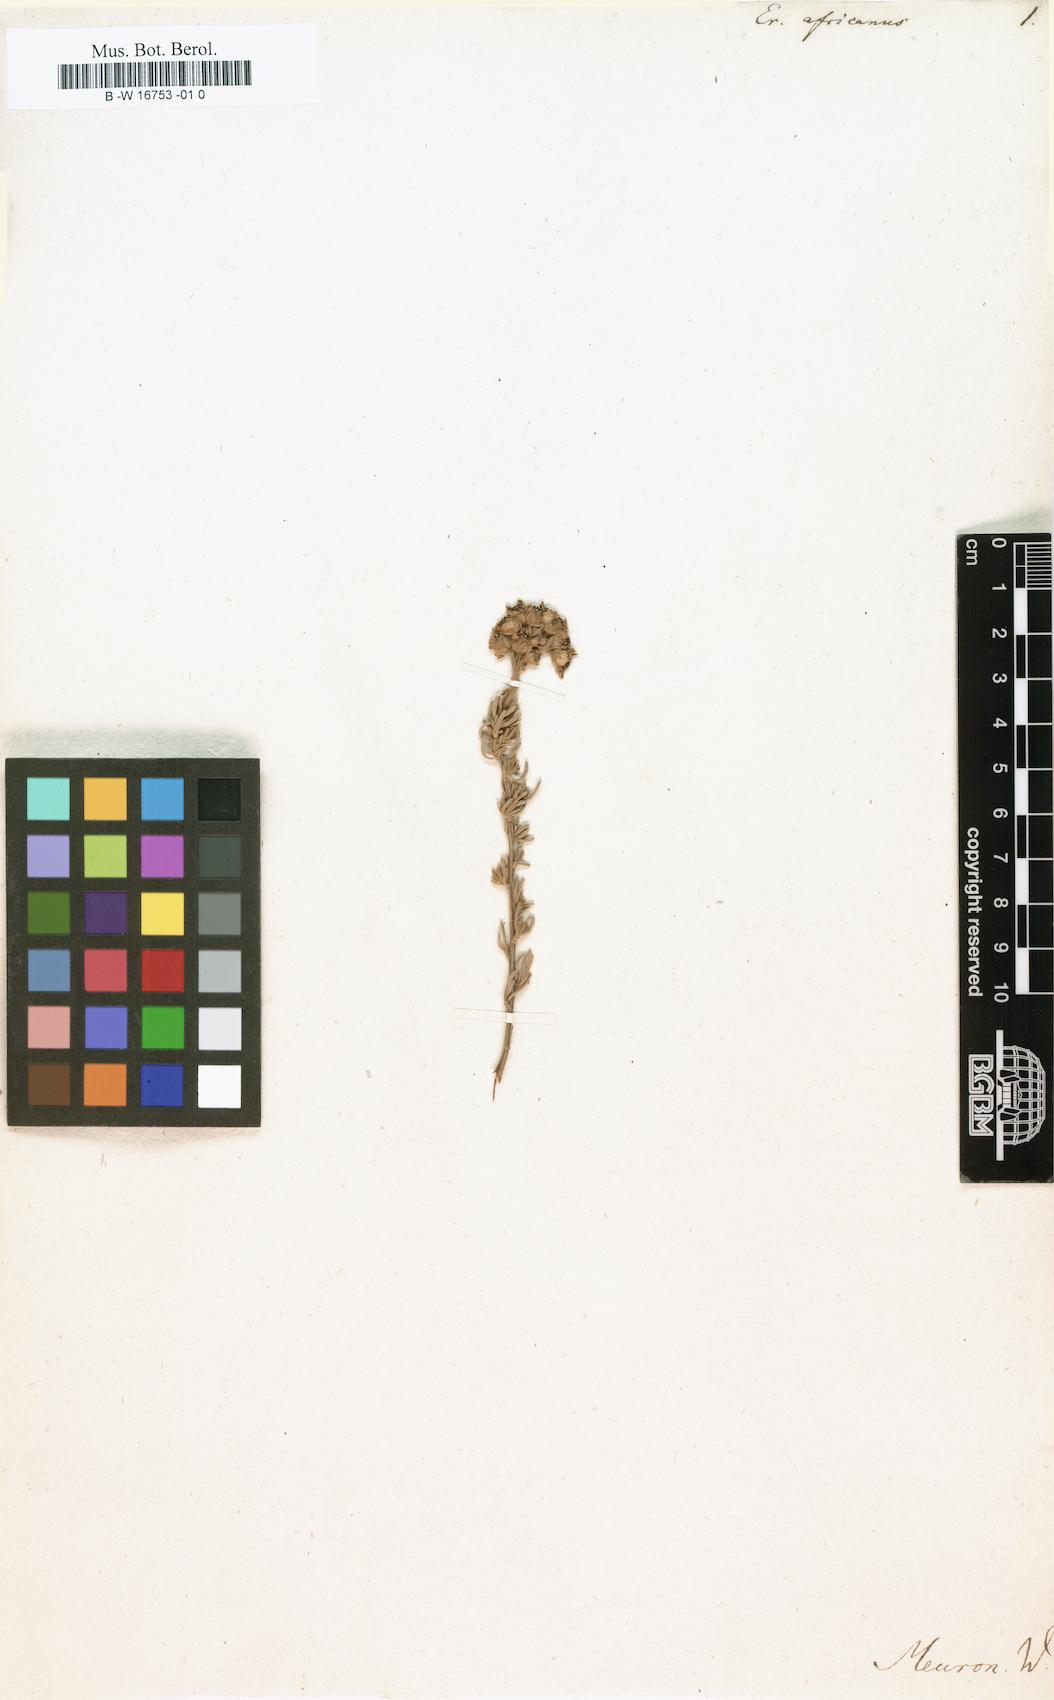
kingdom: Plantae
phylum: Tracheophyta
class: Magnoliopsida
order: Asterales
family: Asteraceae
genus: Eriocephalus
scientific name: Eriocephalus africanus
